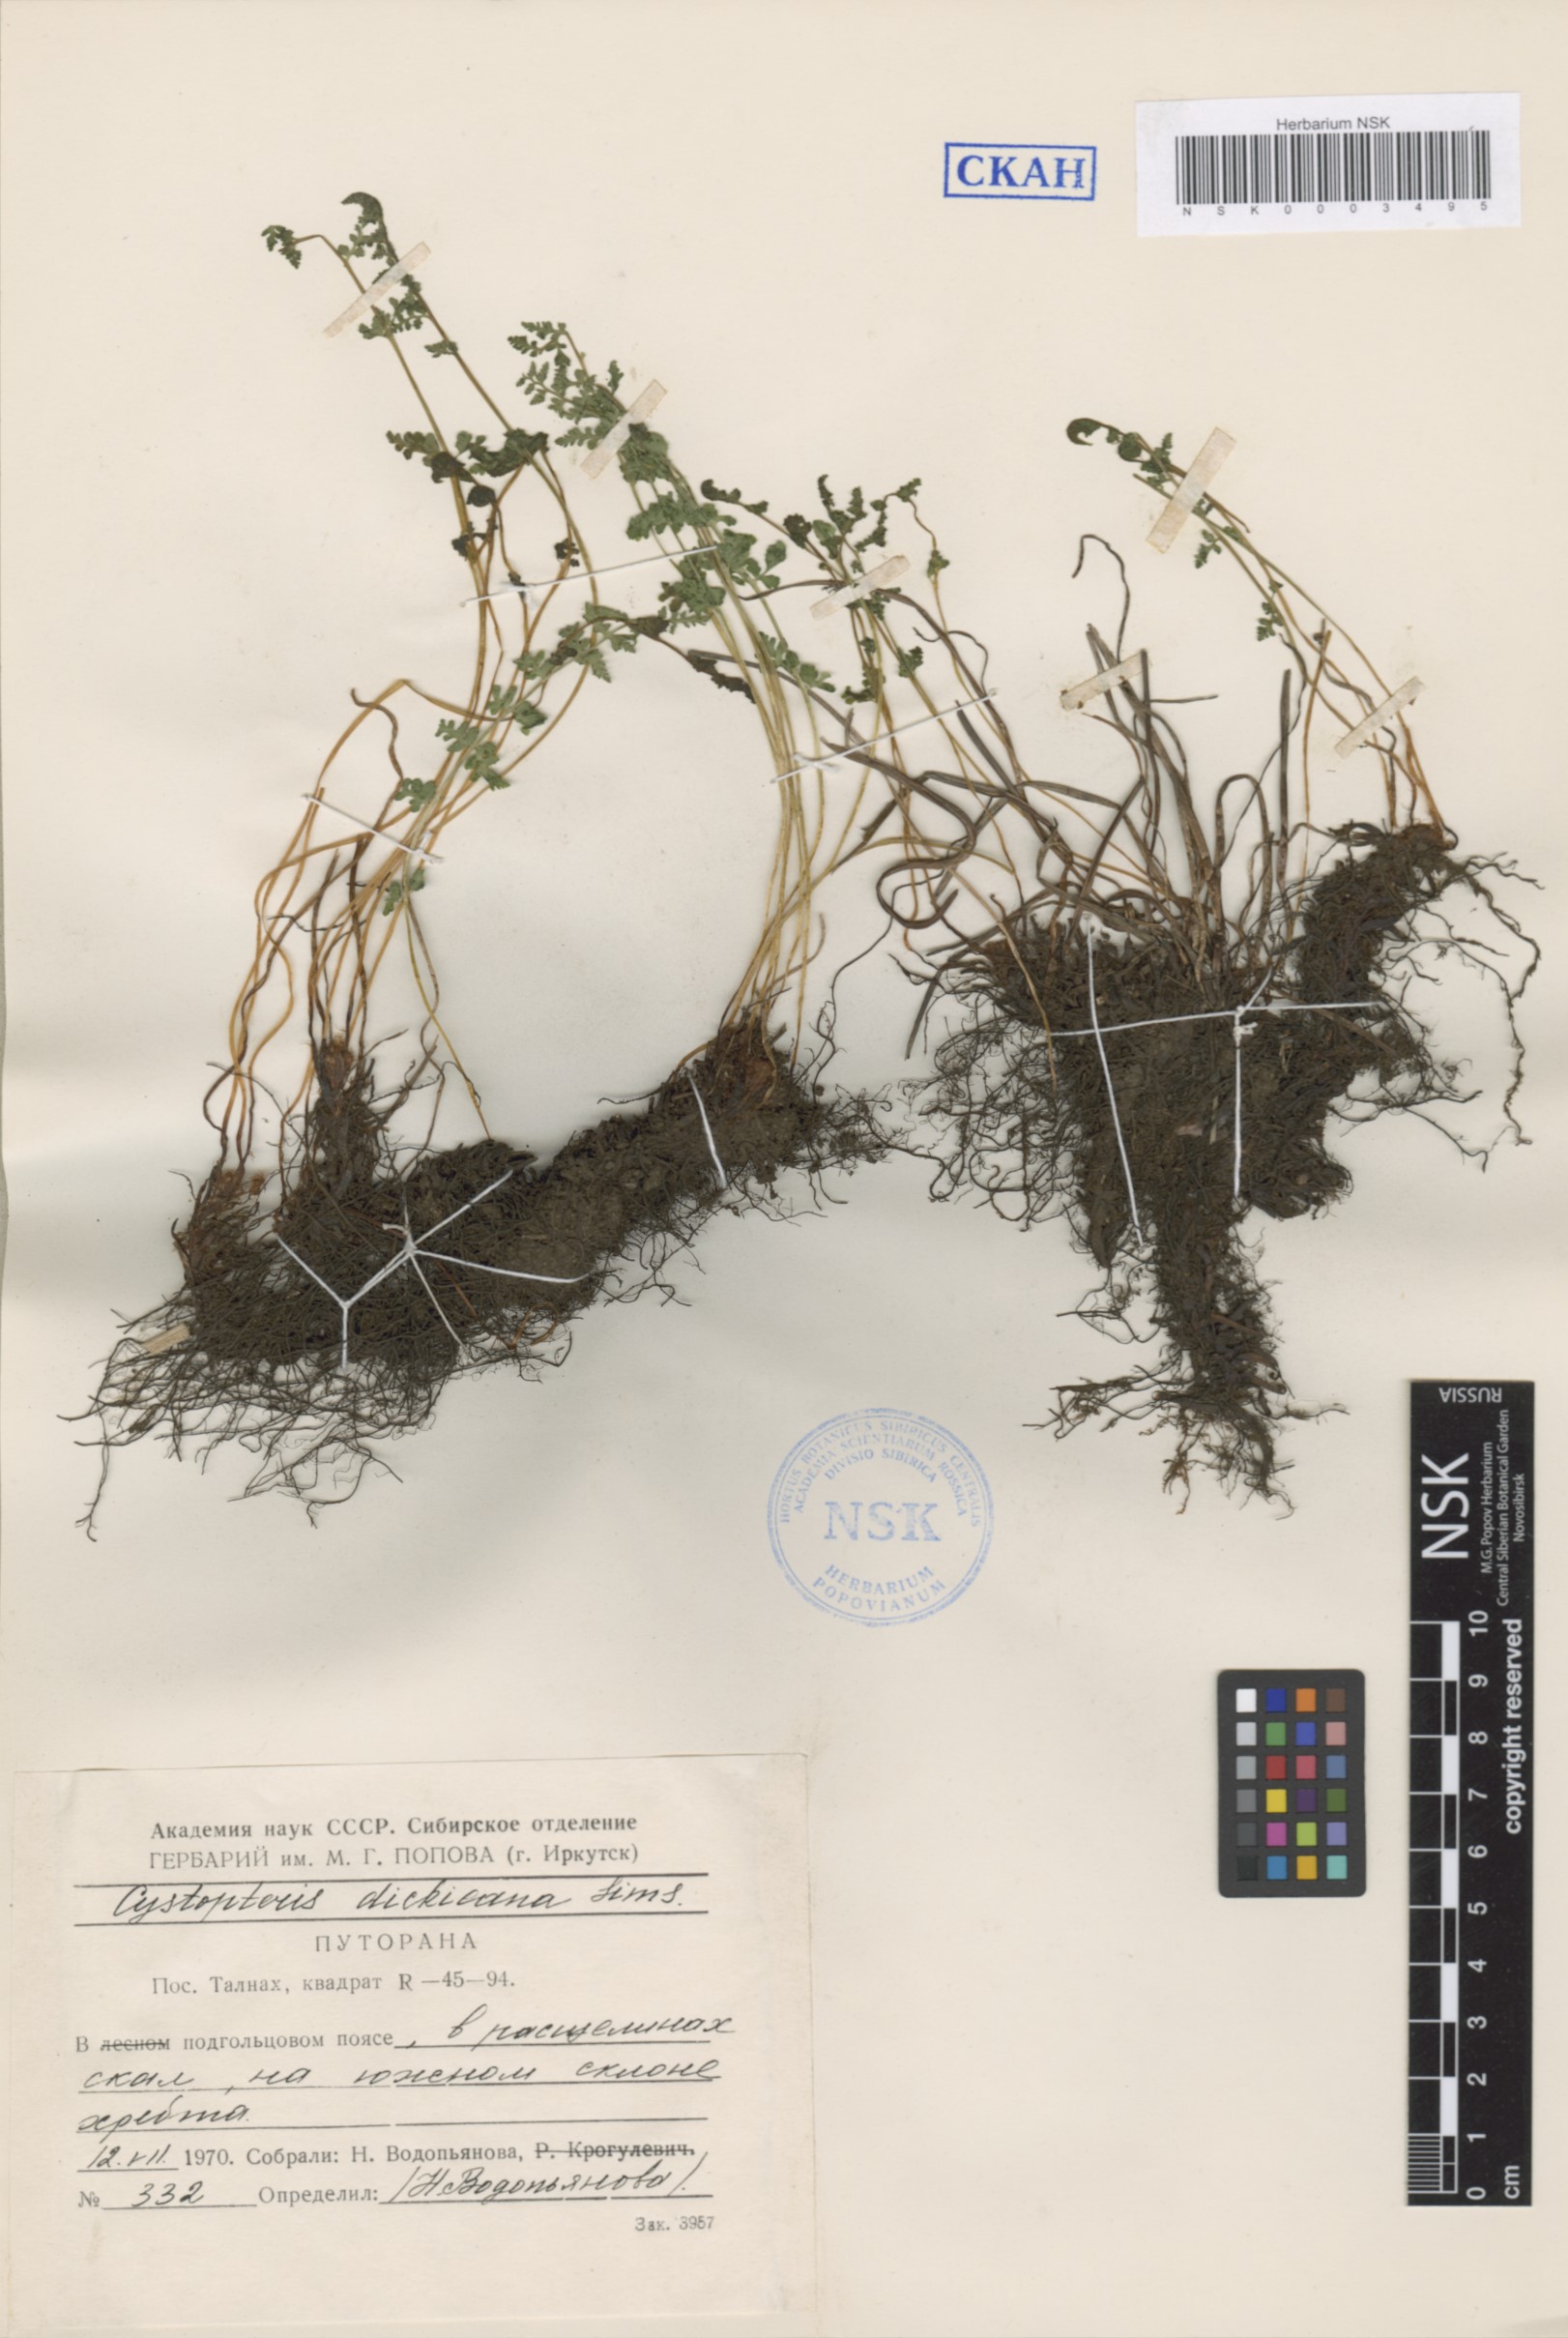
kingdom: Plantae
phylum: Tracheophyta
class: Polypodiopsida
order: Polypodiales
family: Cystopteridaceae
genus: Cystopteris
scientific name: Cystopteris dickieana
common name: Dickie's bladder-fern
